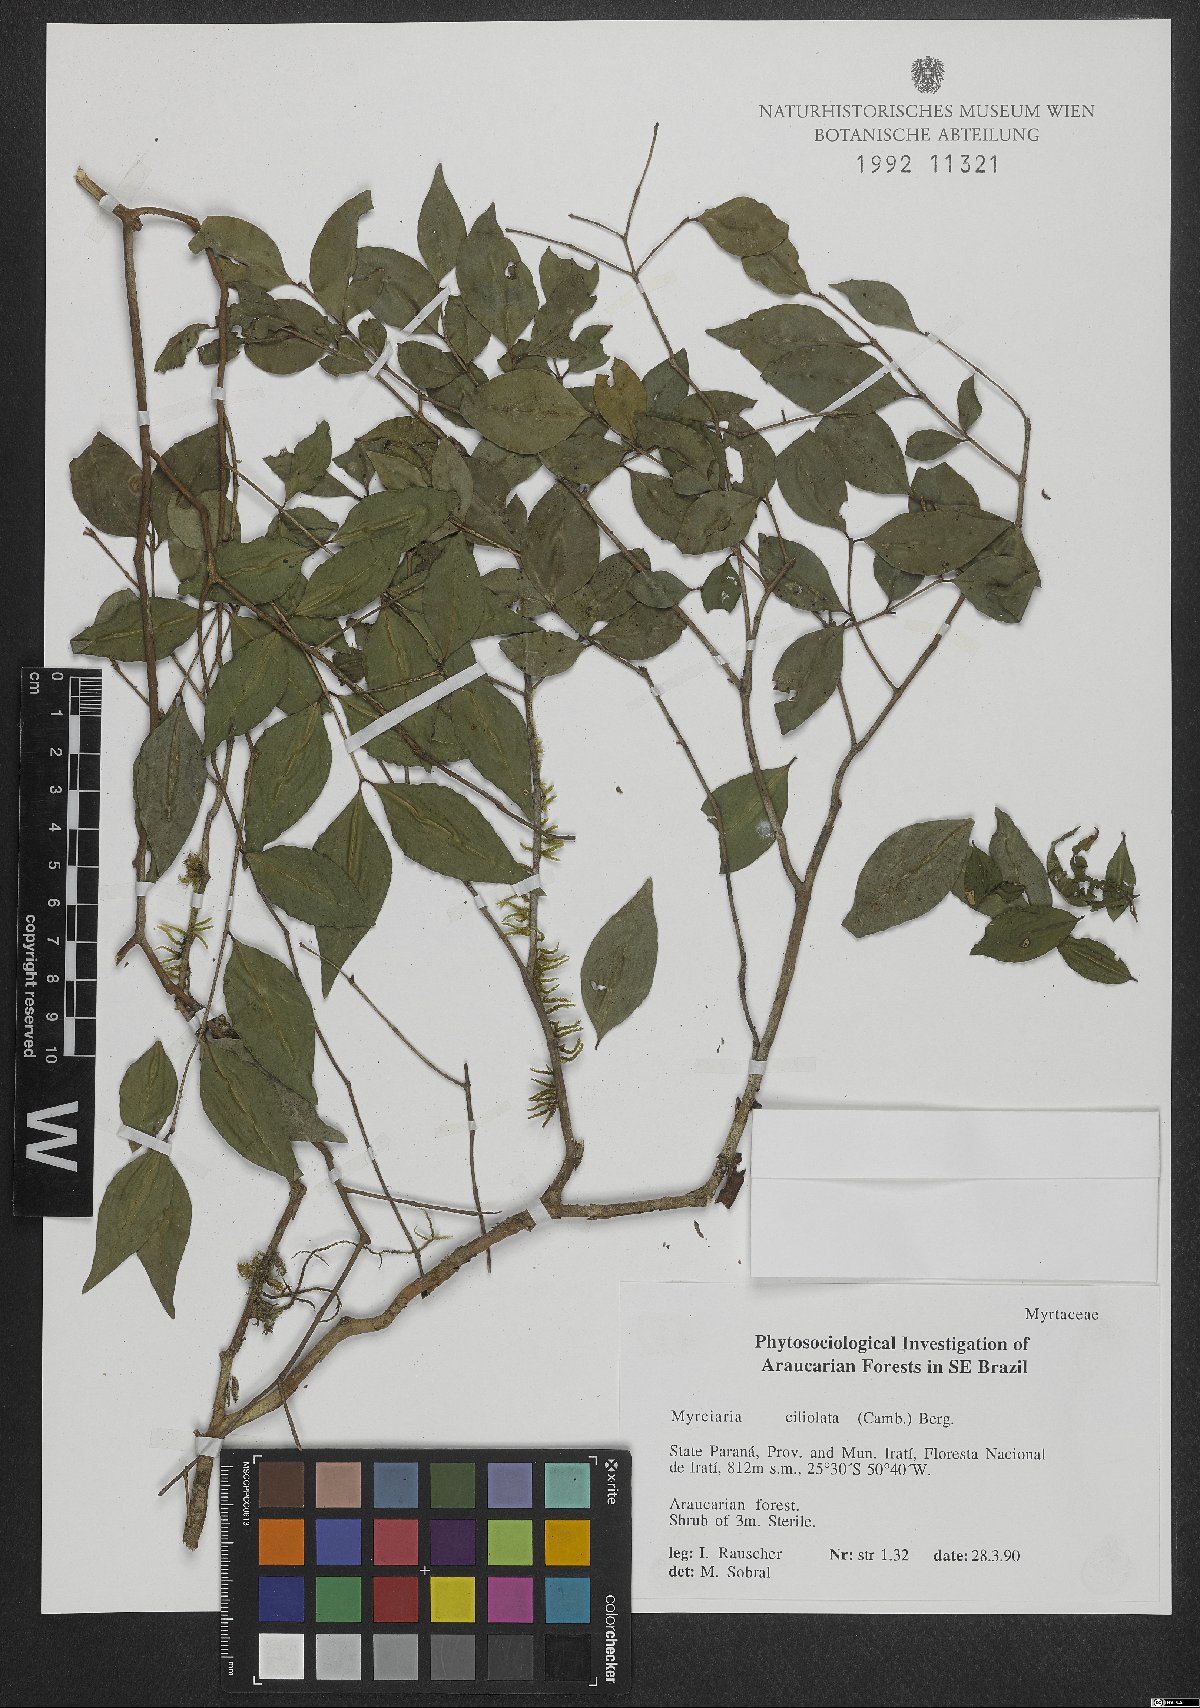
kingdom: Plantae
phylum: Tracheophyta
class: Magnoliopsida
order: Myrtales
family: Myrtaceae
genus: Myrciaria
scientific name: Myrciaria ciliolata
